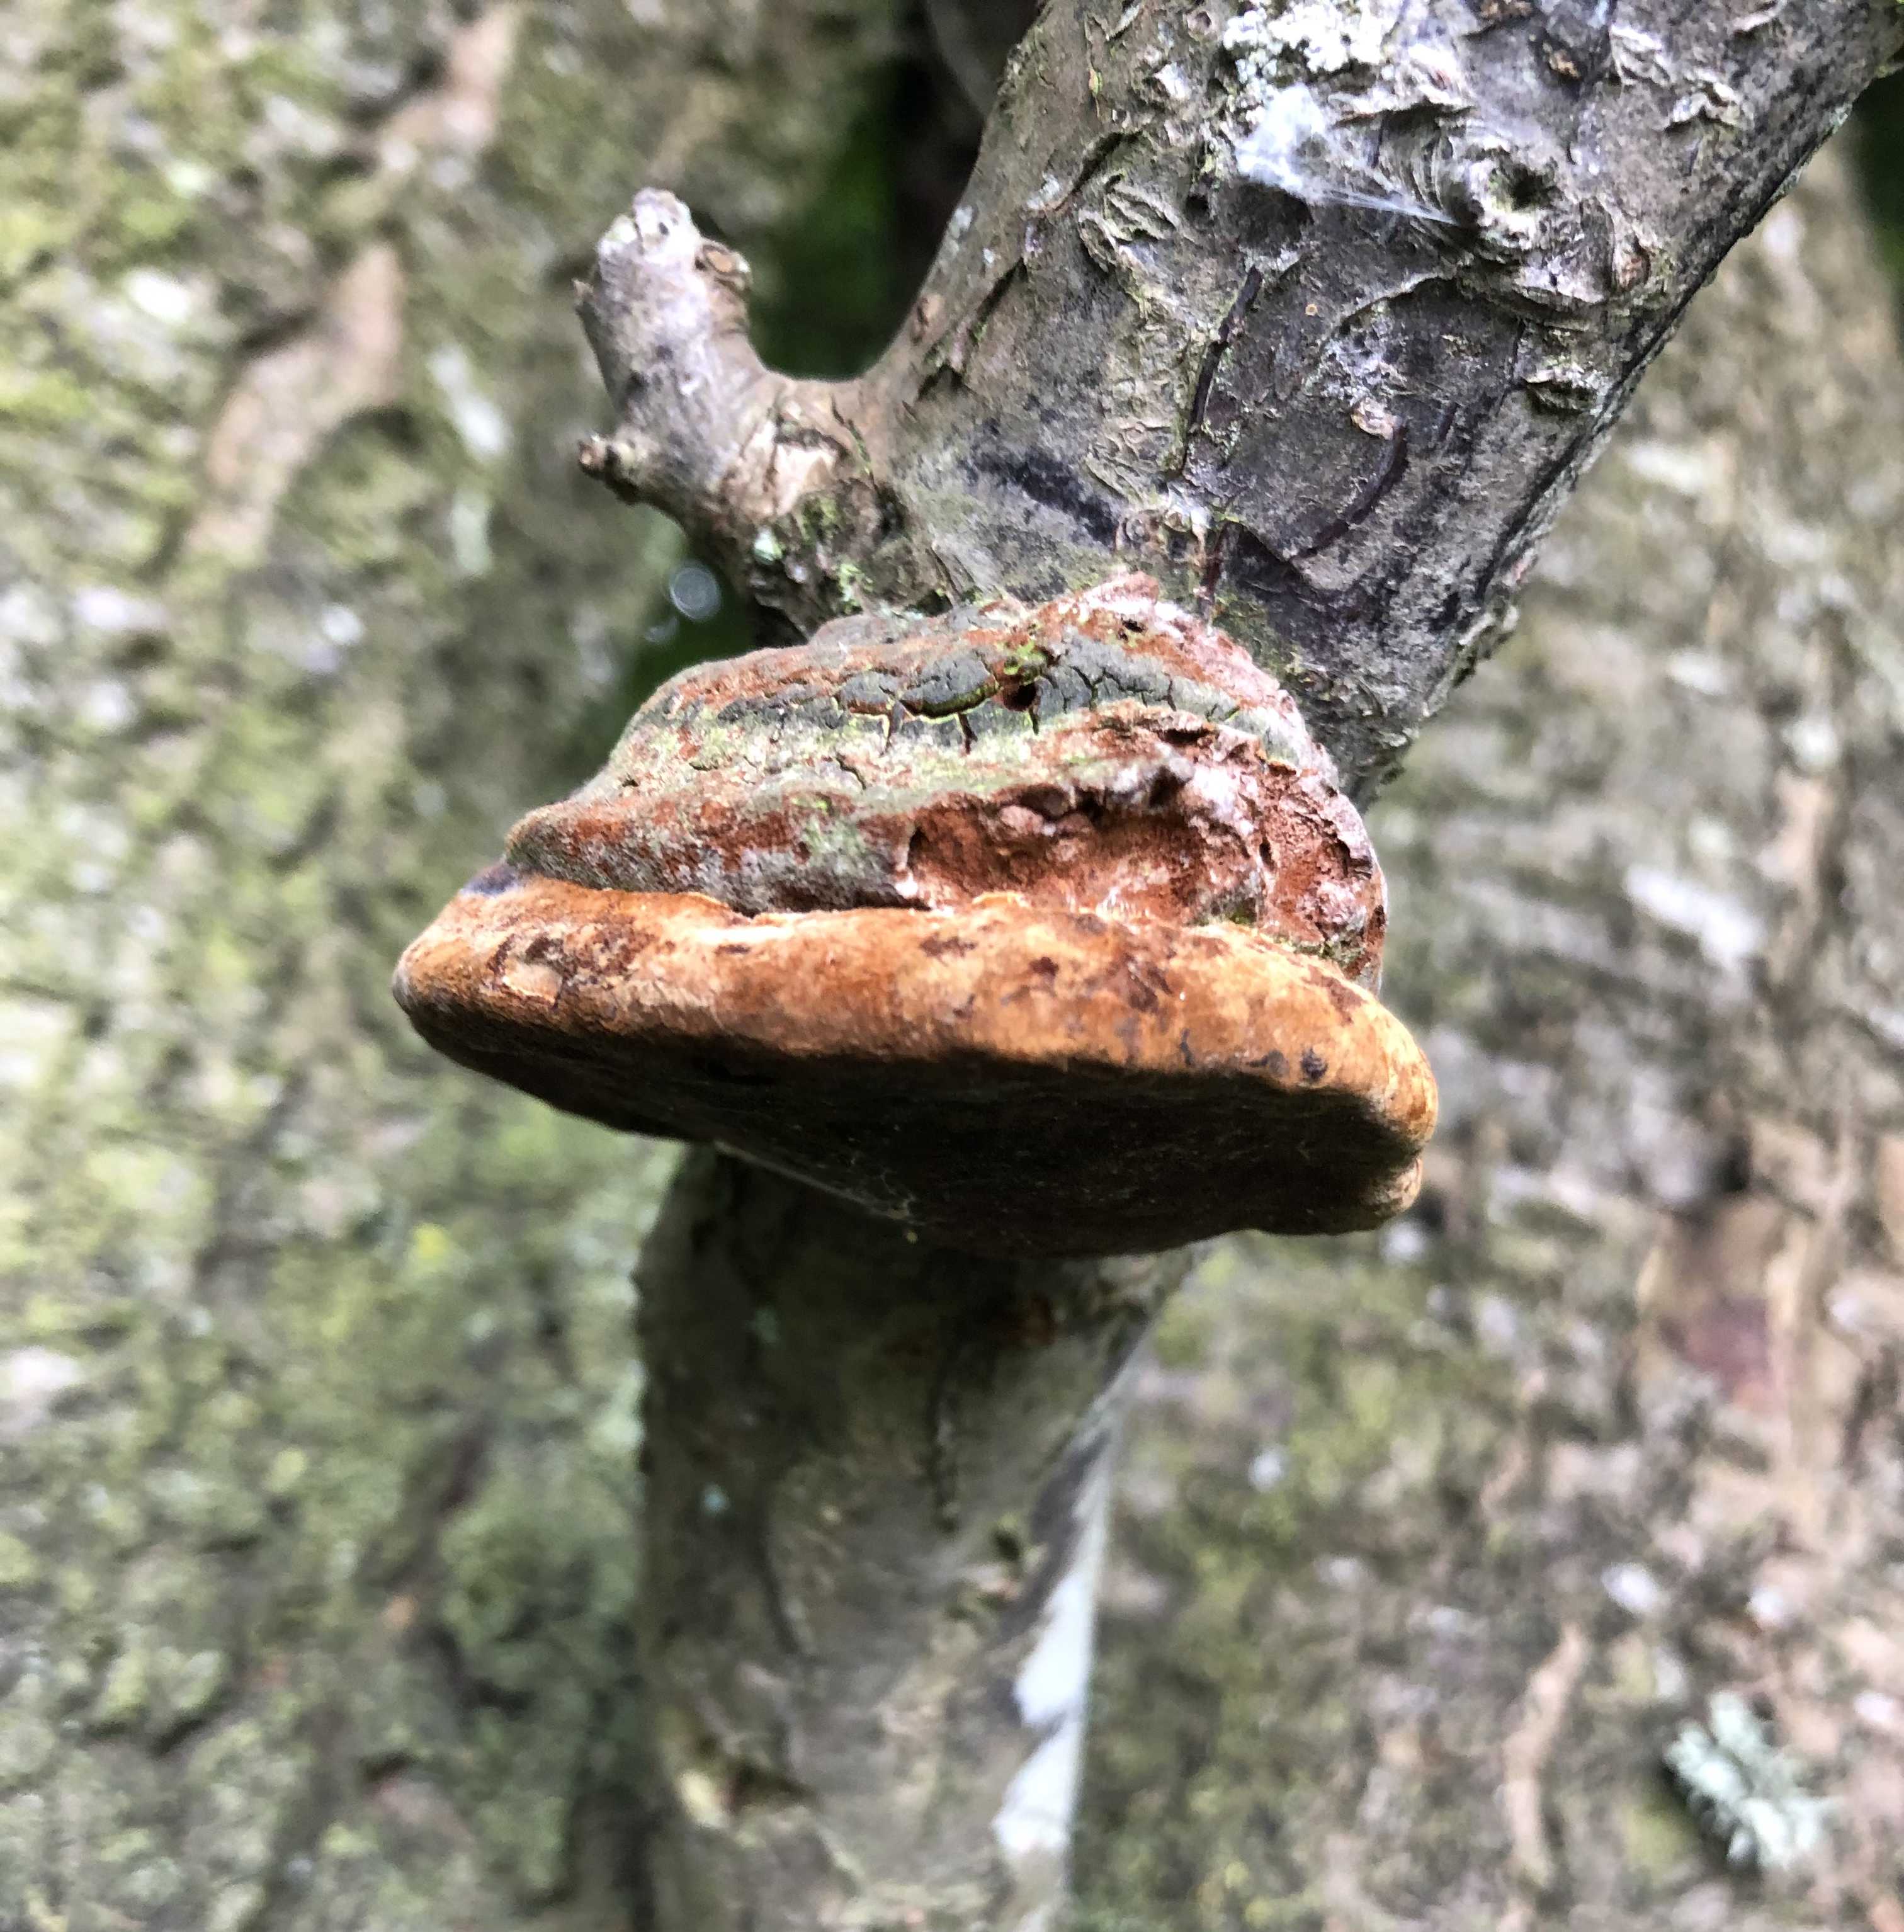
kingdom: Fungi
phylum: Basidiomycota
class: Agaricomycetes
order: Hymenochaetales
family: Hymenochaetaceae
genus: Phellinus
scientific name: Phellinus pomaceus
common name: blomme-ildporesvamp
